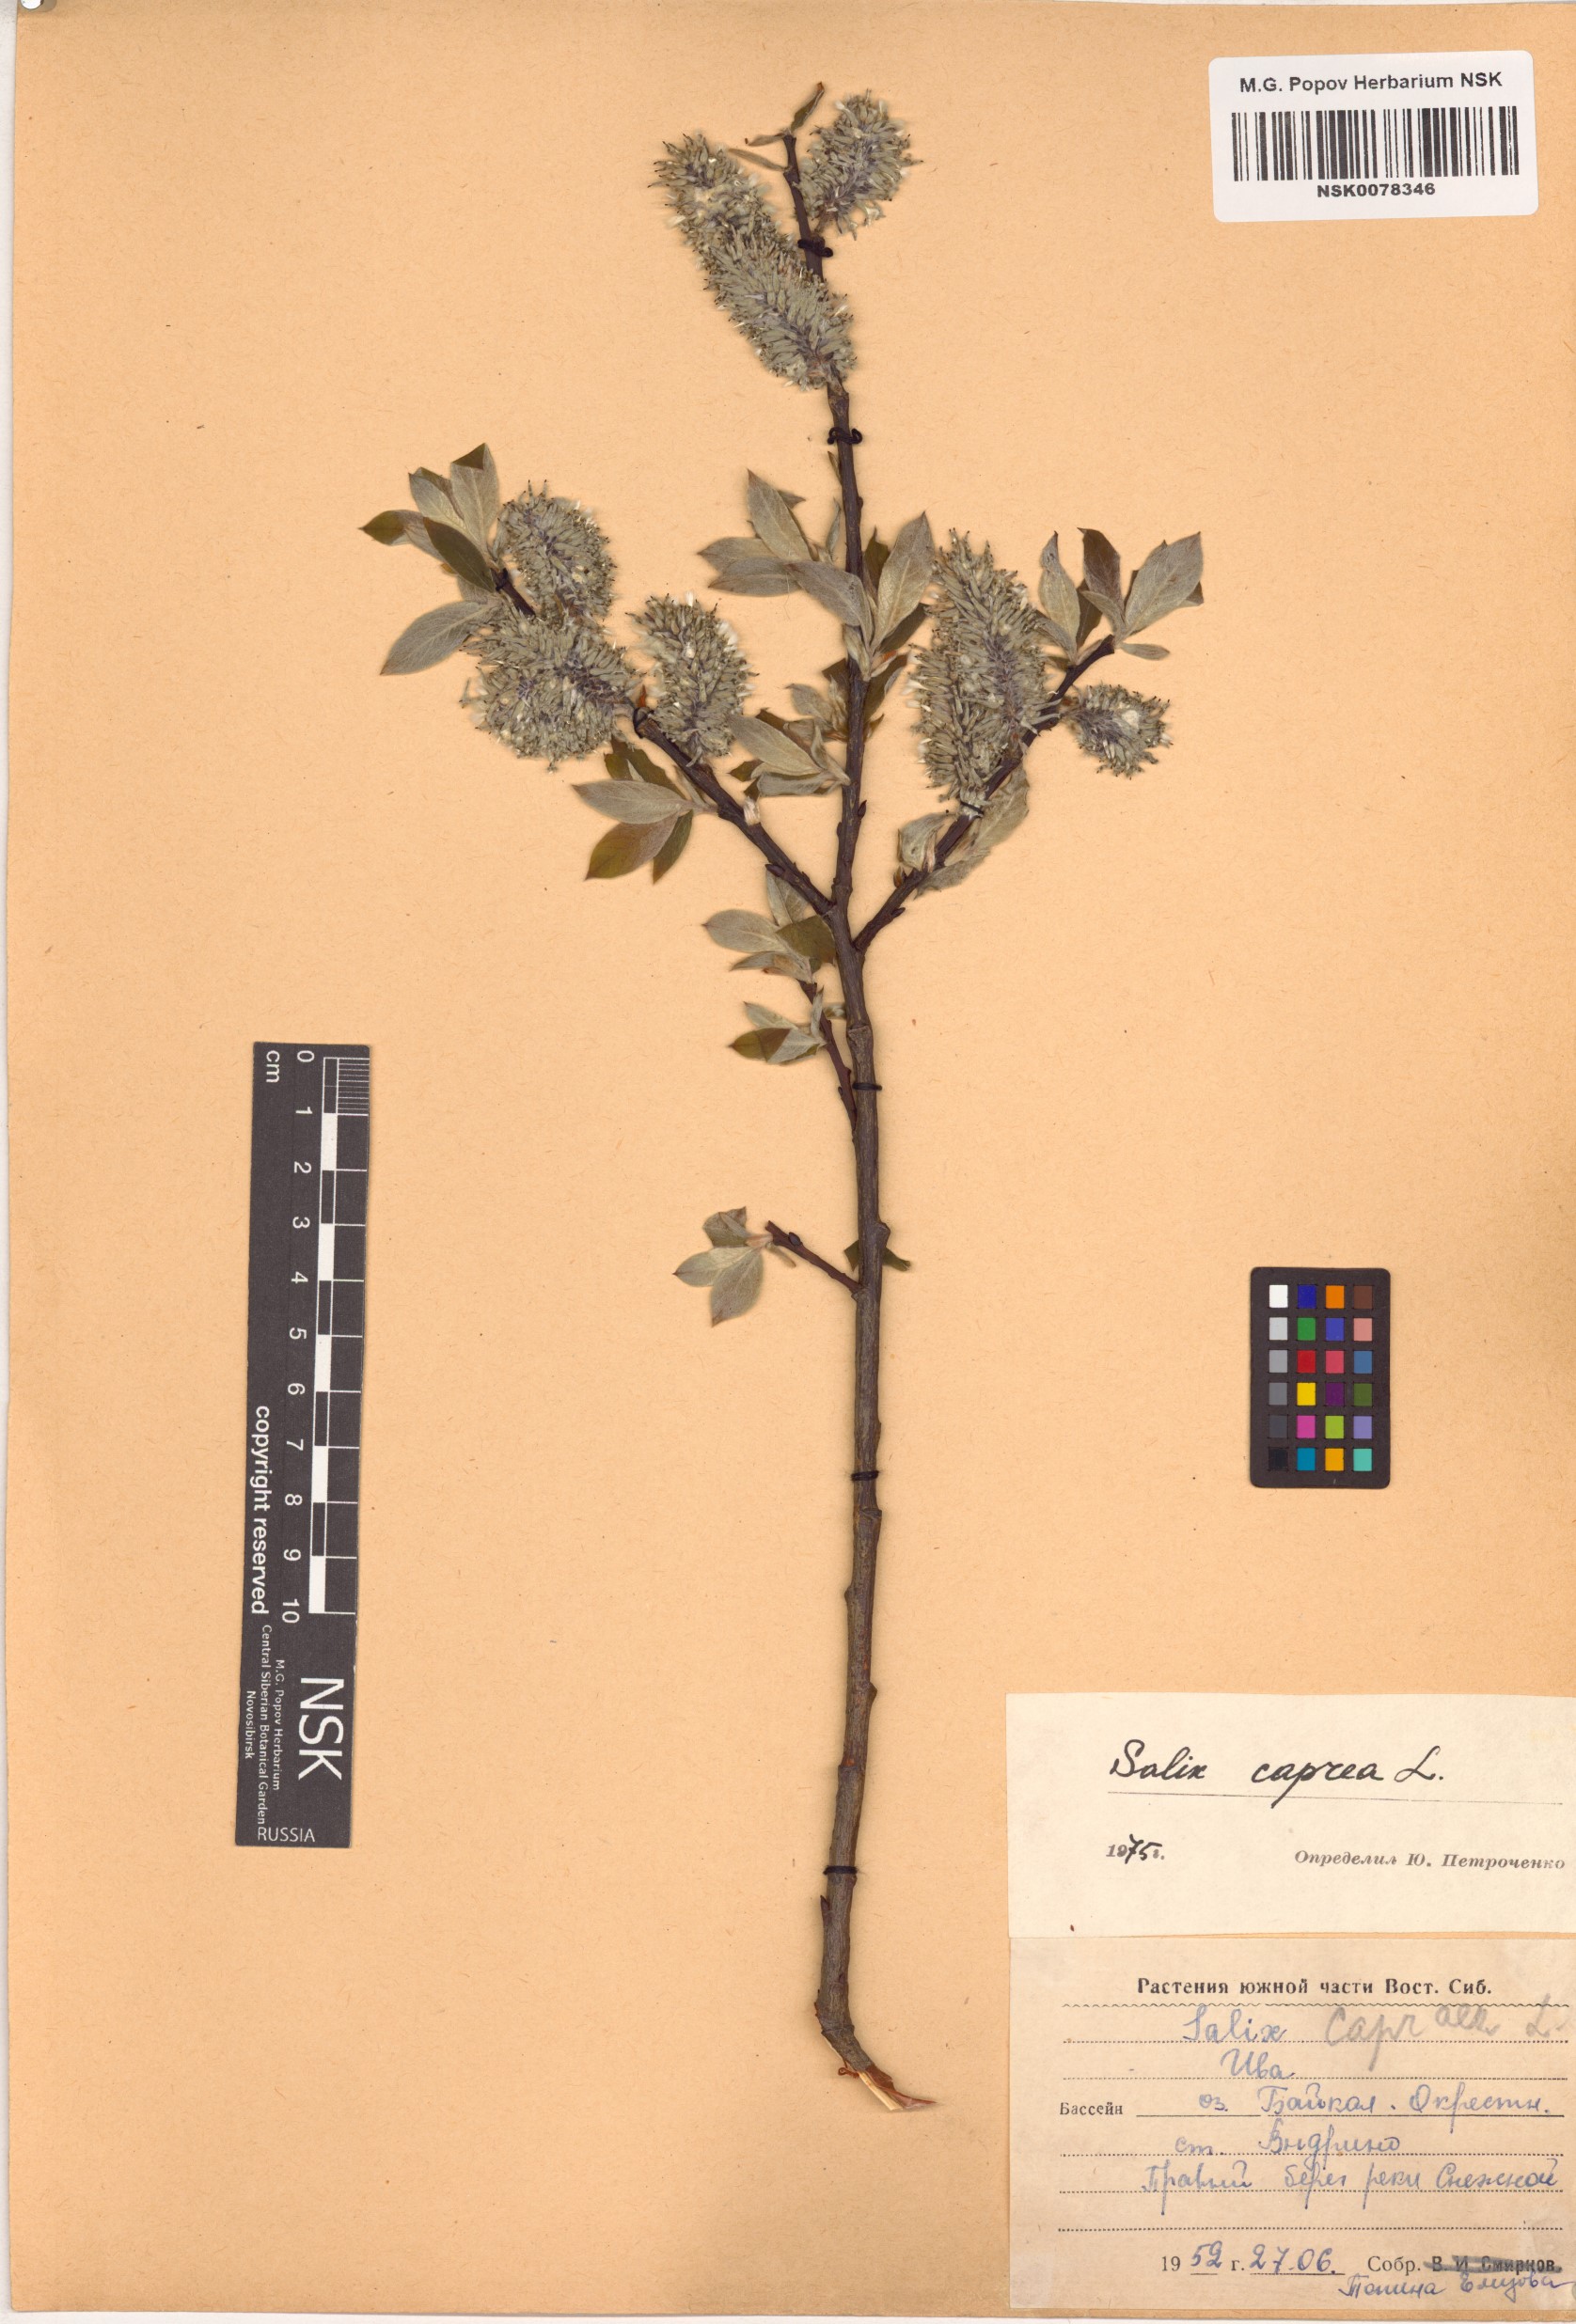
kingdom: Plantae
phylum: Tracheophyta
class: Magnoliopsida
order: Malpighiales
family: Salicaceae
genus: Salix
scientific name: Salix caprea
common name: Goat willow
